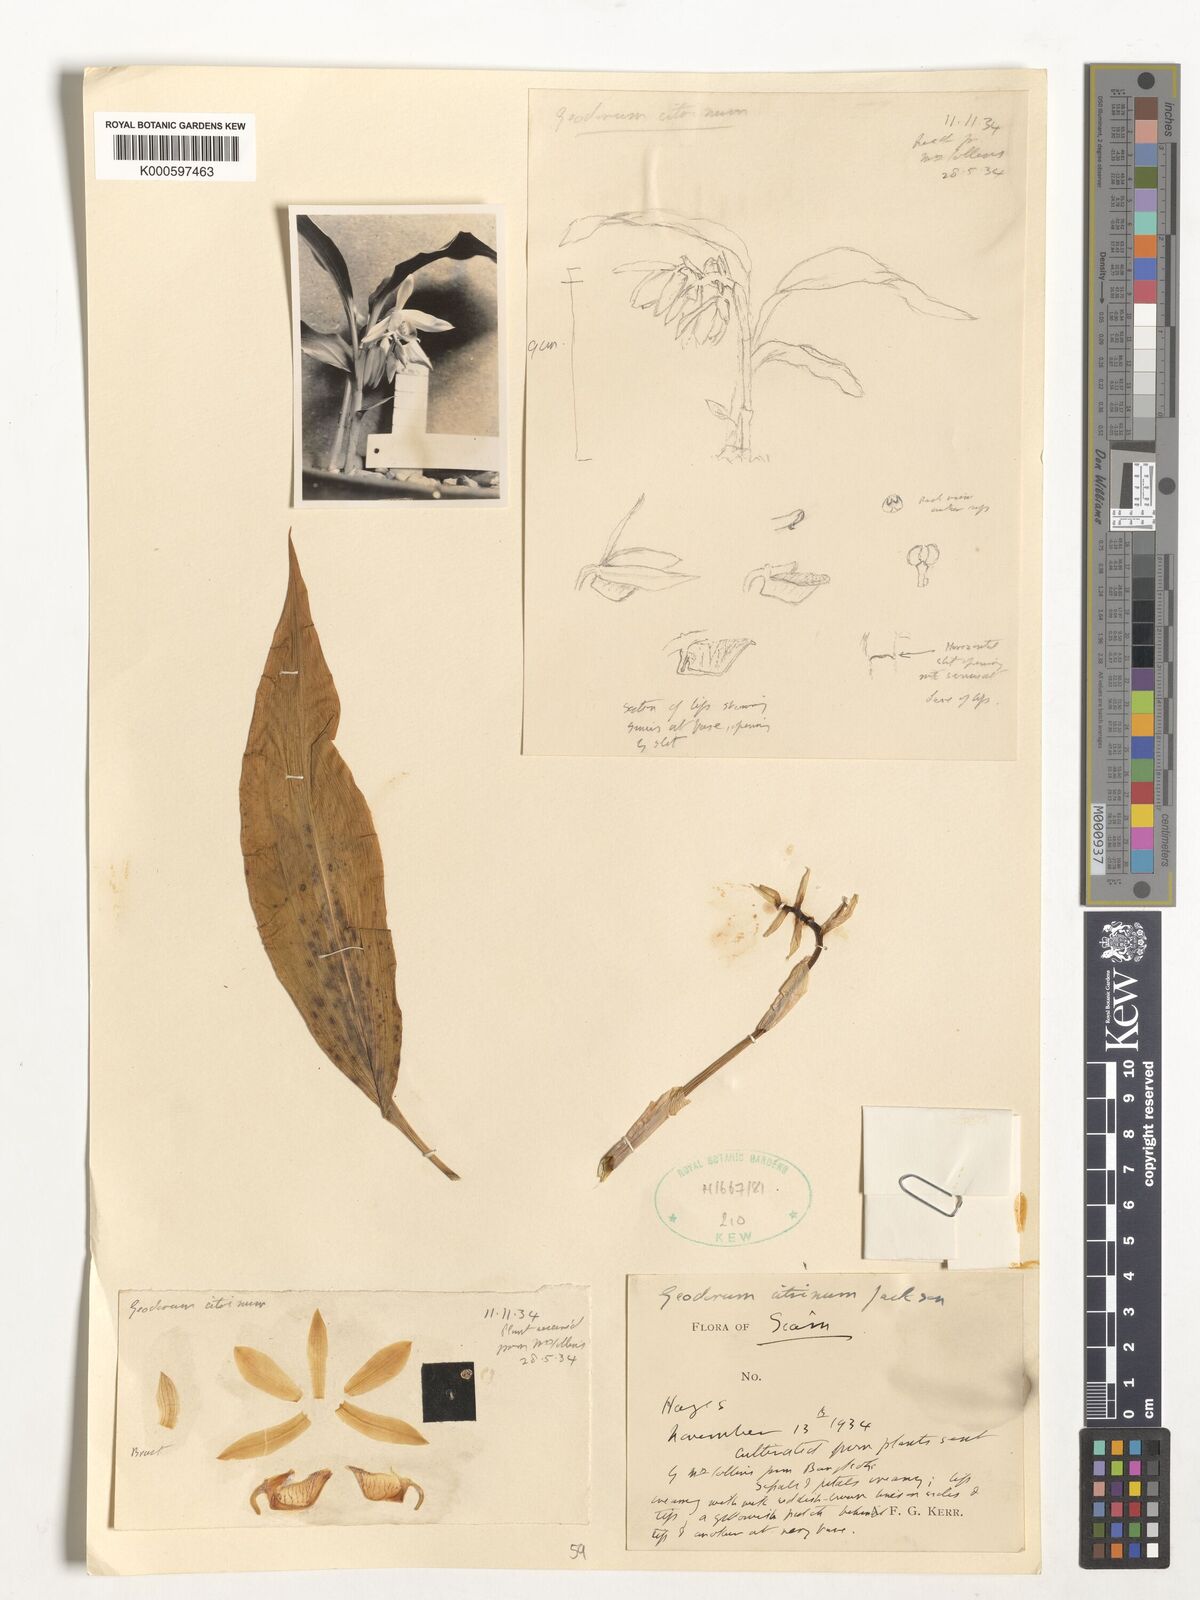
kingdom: Plantae
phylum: Tracheophyta
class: Liliopsida
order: Asparagales
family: Orchidaceae
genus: Geodorum
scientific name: Geodorum
